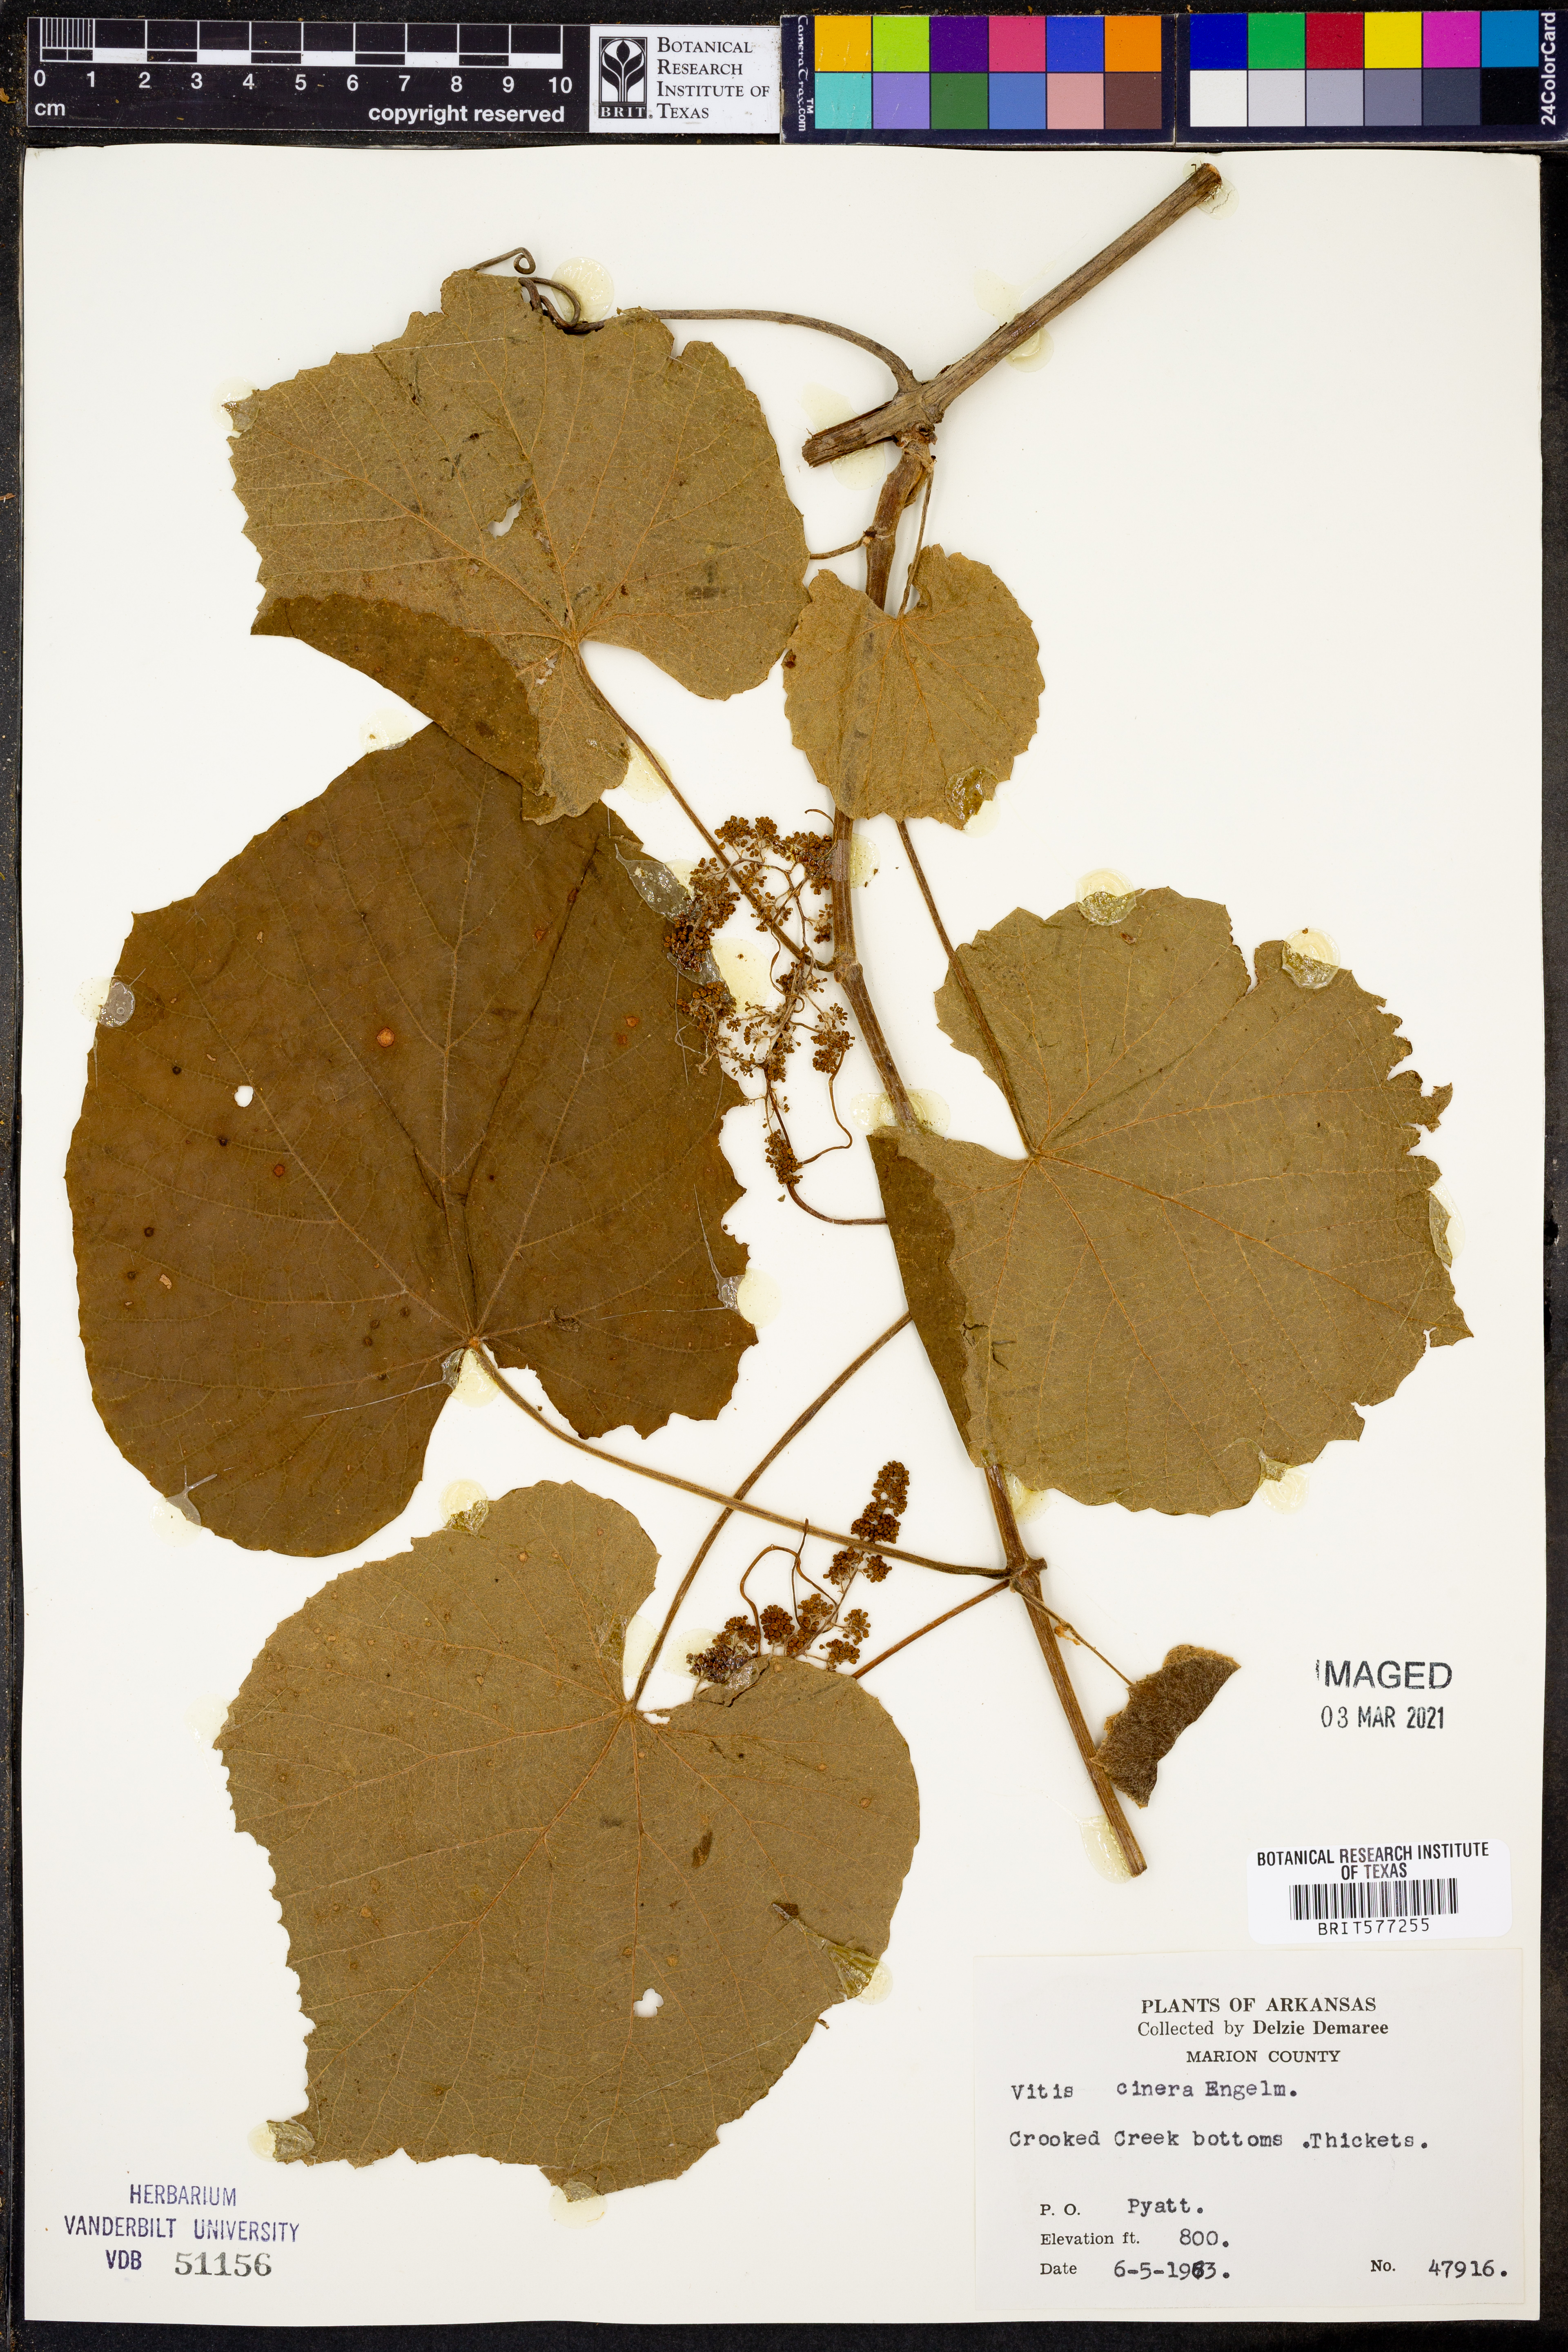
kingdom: Plantae
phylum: Tracheophyta
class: Magnoliopsida
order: Vitales
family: Vitaceae
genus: Vitis
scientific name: Vitis cinerea
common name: Ashy grape
